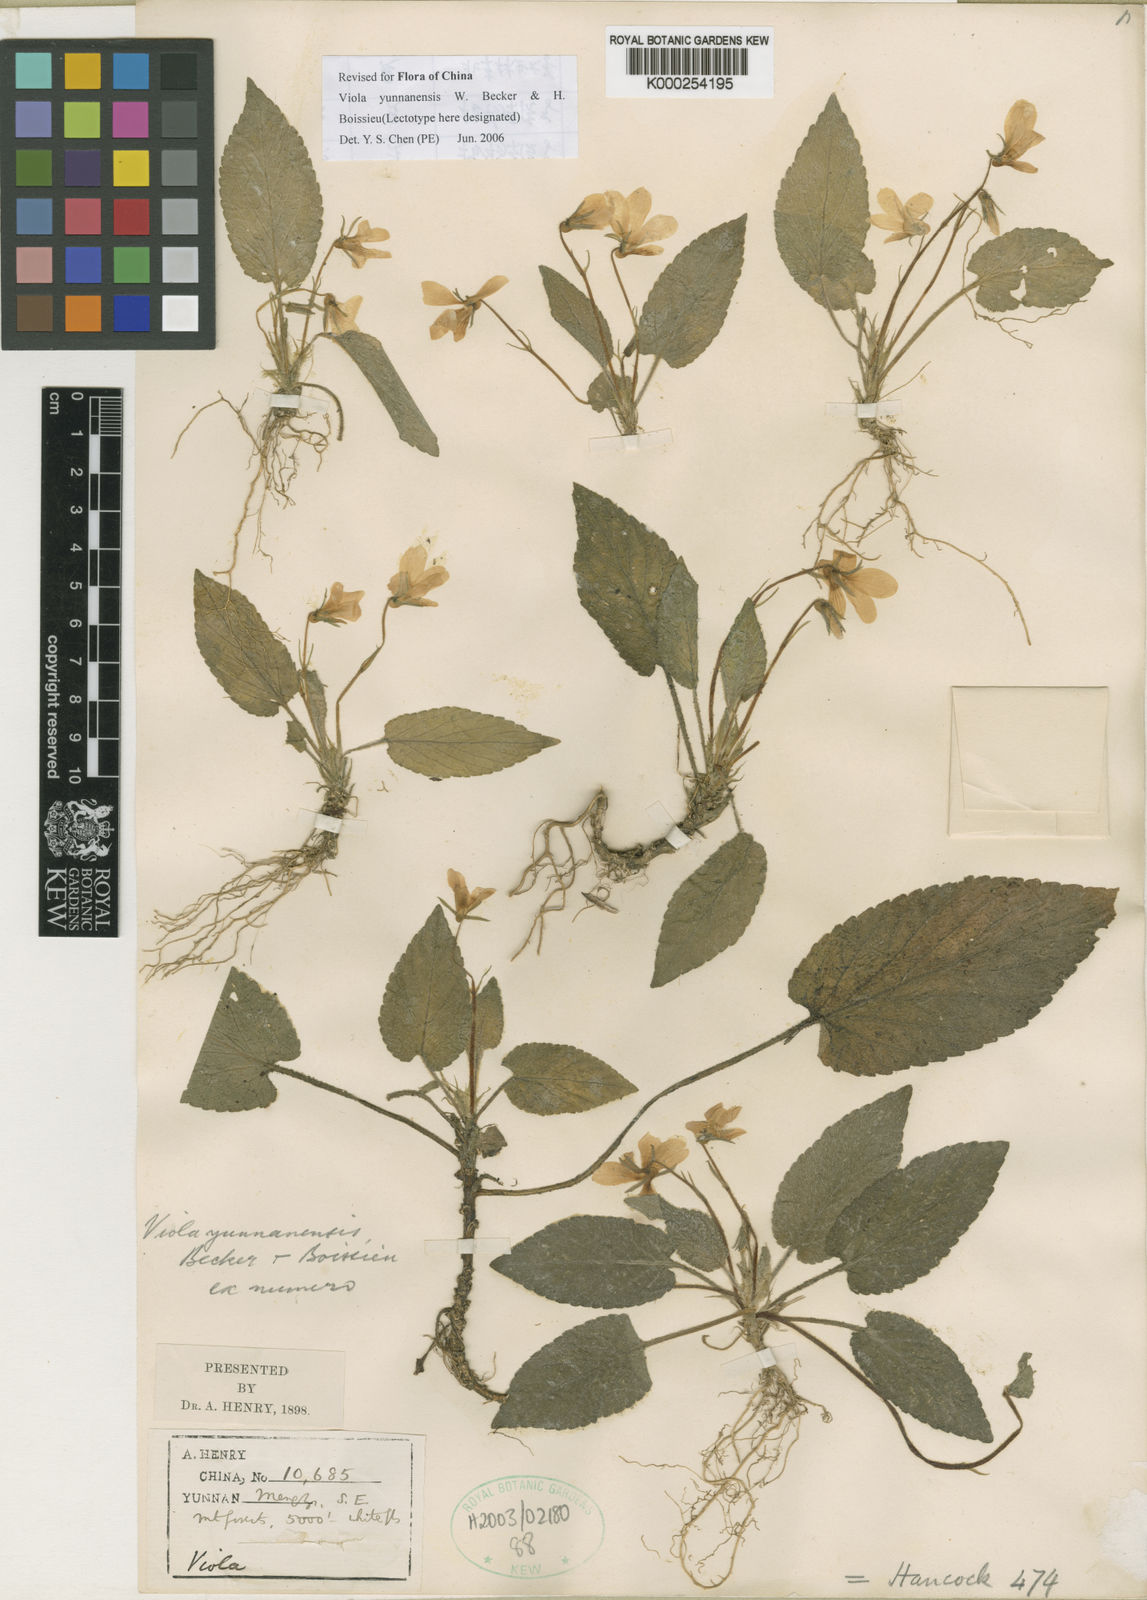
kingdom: Plantae
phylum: Tracheophyta
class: Magnoliopsida
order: Malpighiales
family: Violaceae
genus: Viola
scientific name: Viola yunnanensis
